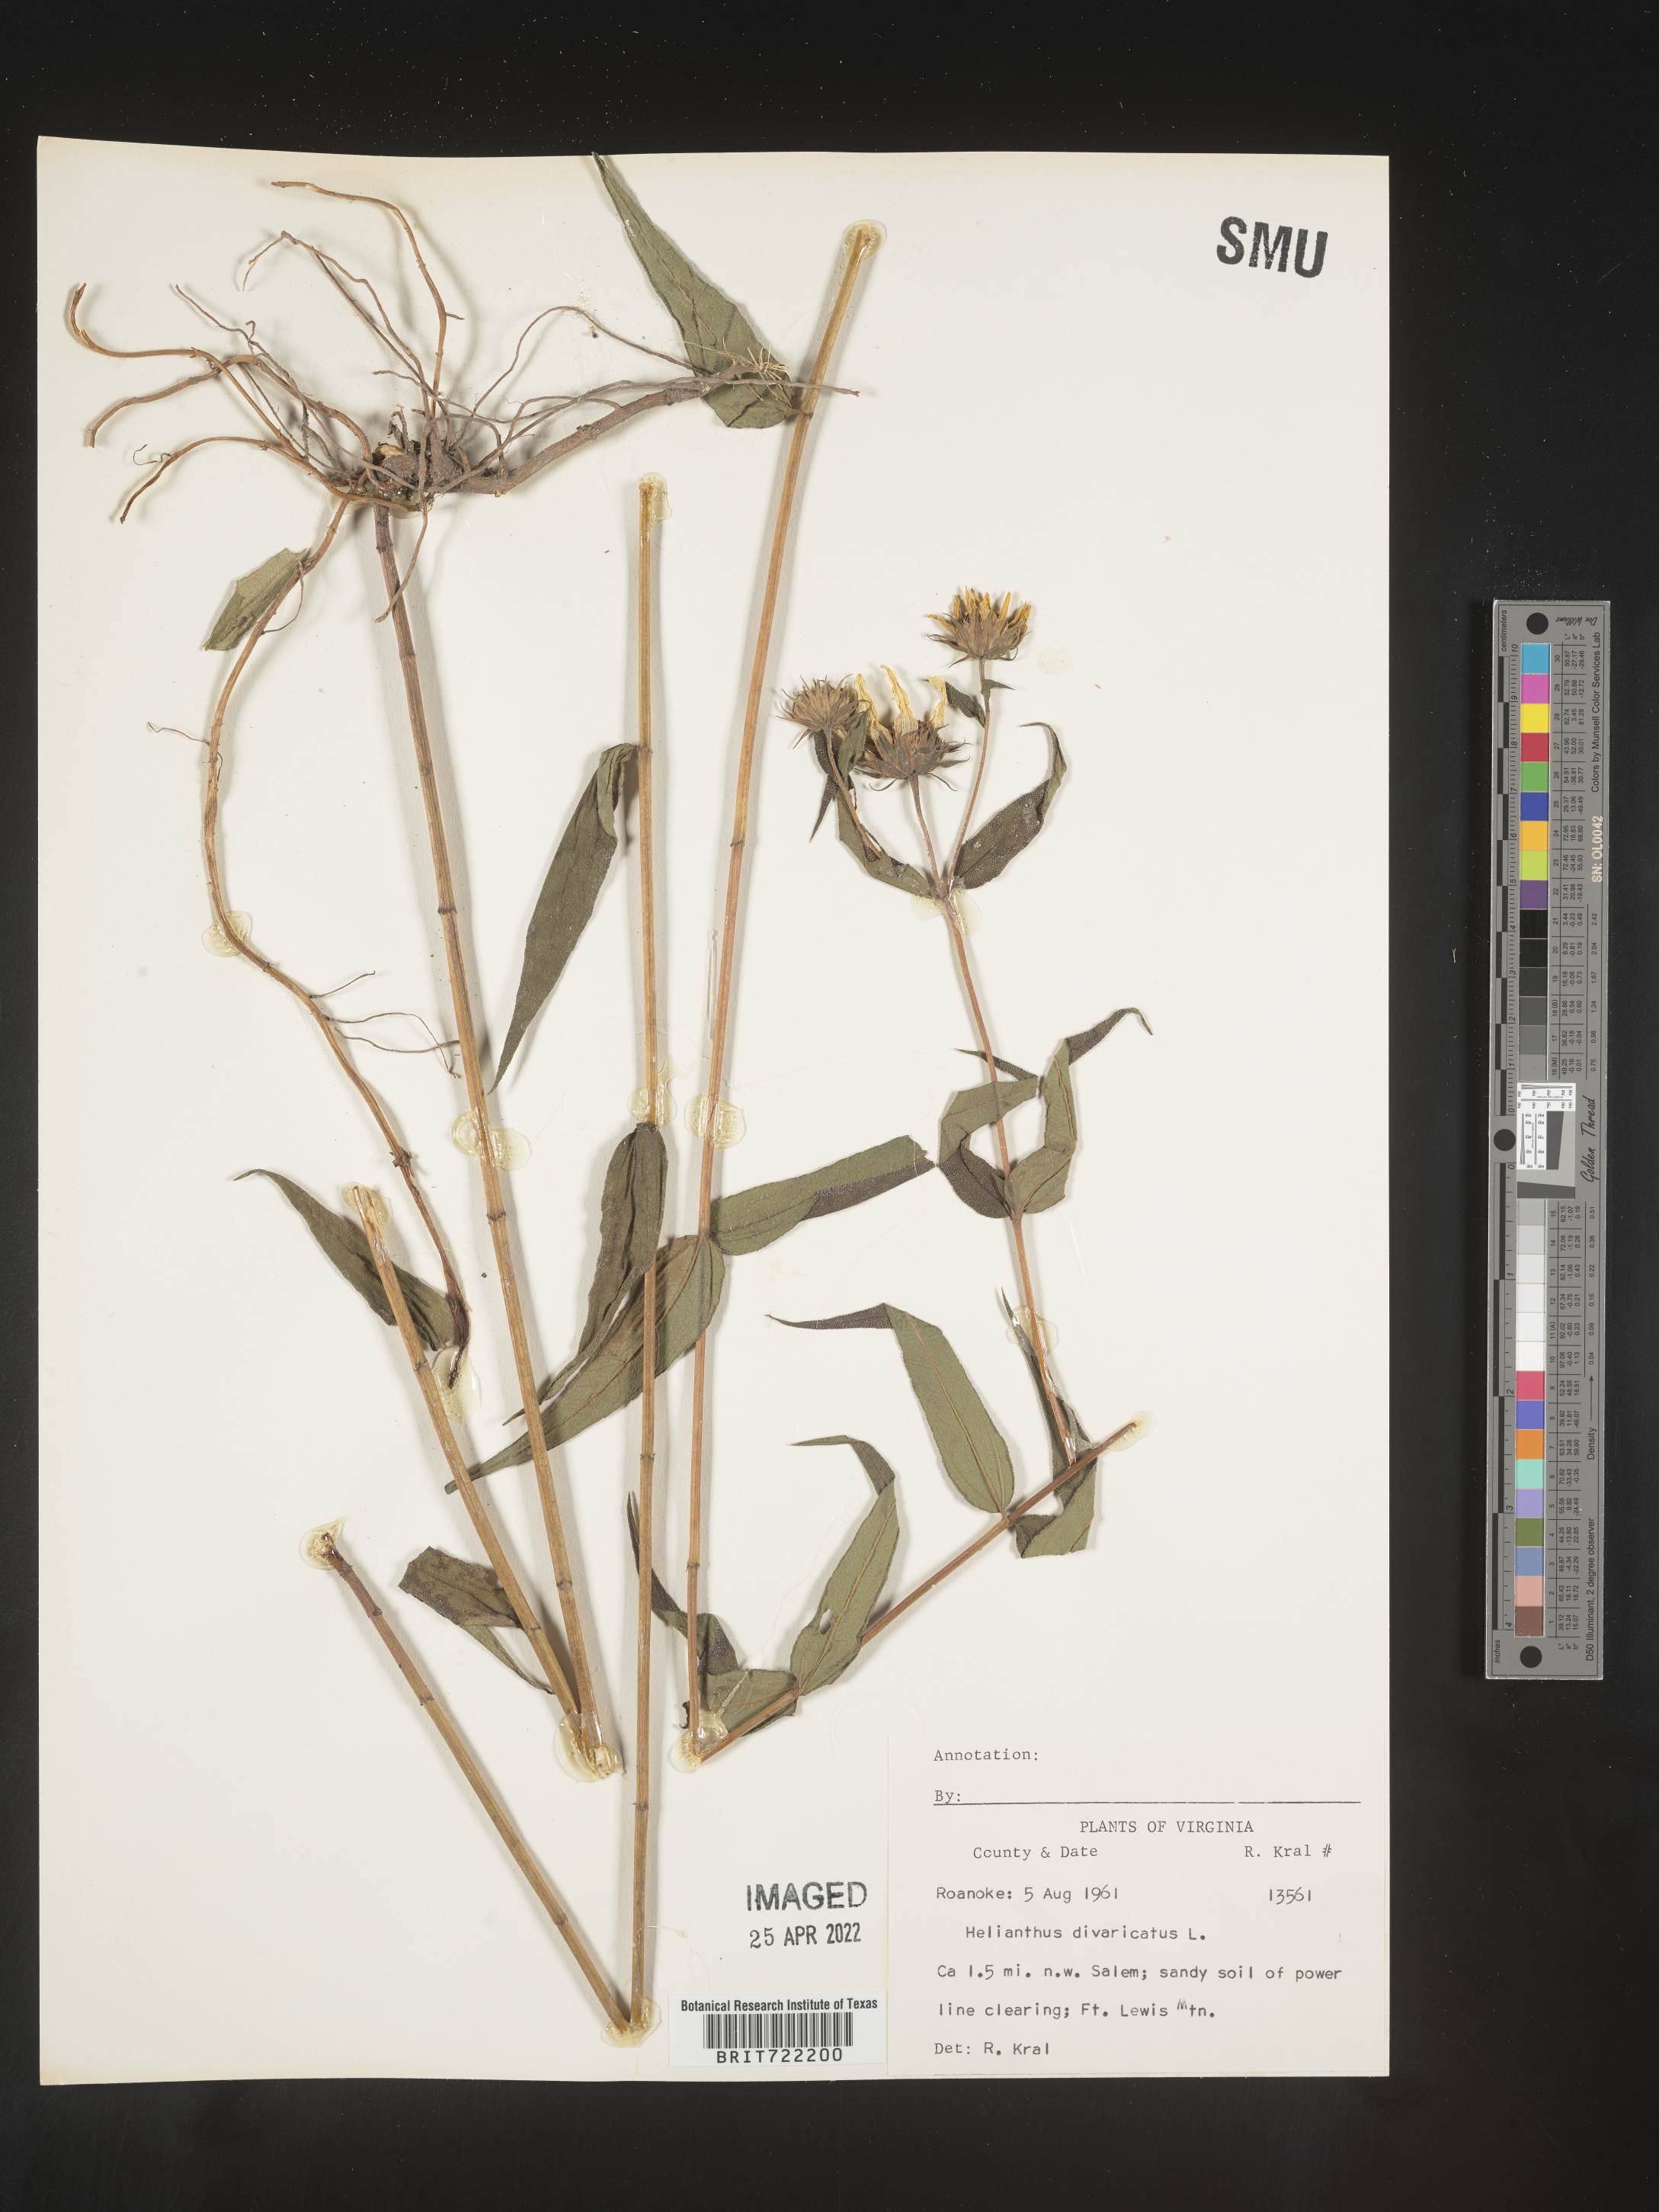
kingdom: Plantae
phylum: Tracheophyta
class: Magnoliopsida
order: Asterales
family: Asteraceae
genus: Helianthus
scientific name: Helianthus divaricatus
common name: Divergent sunflower
